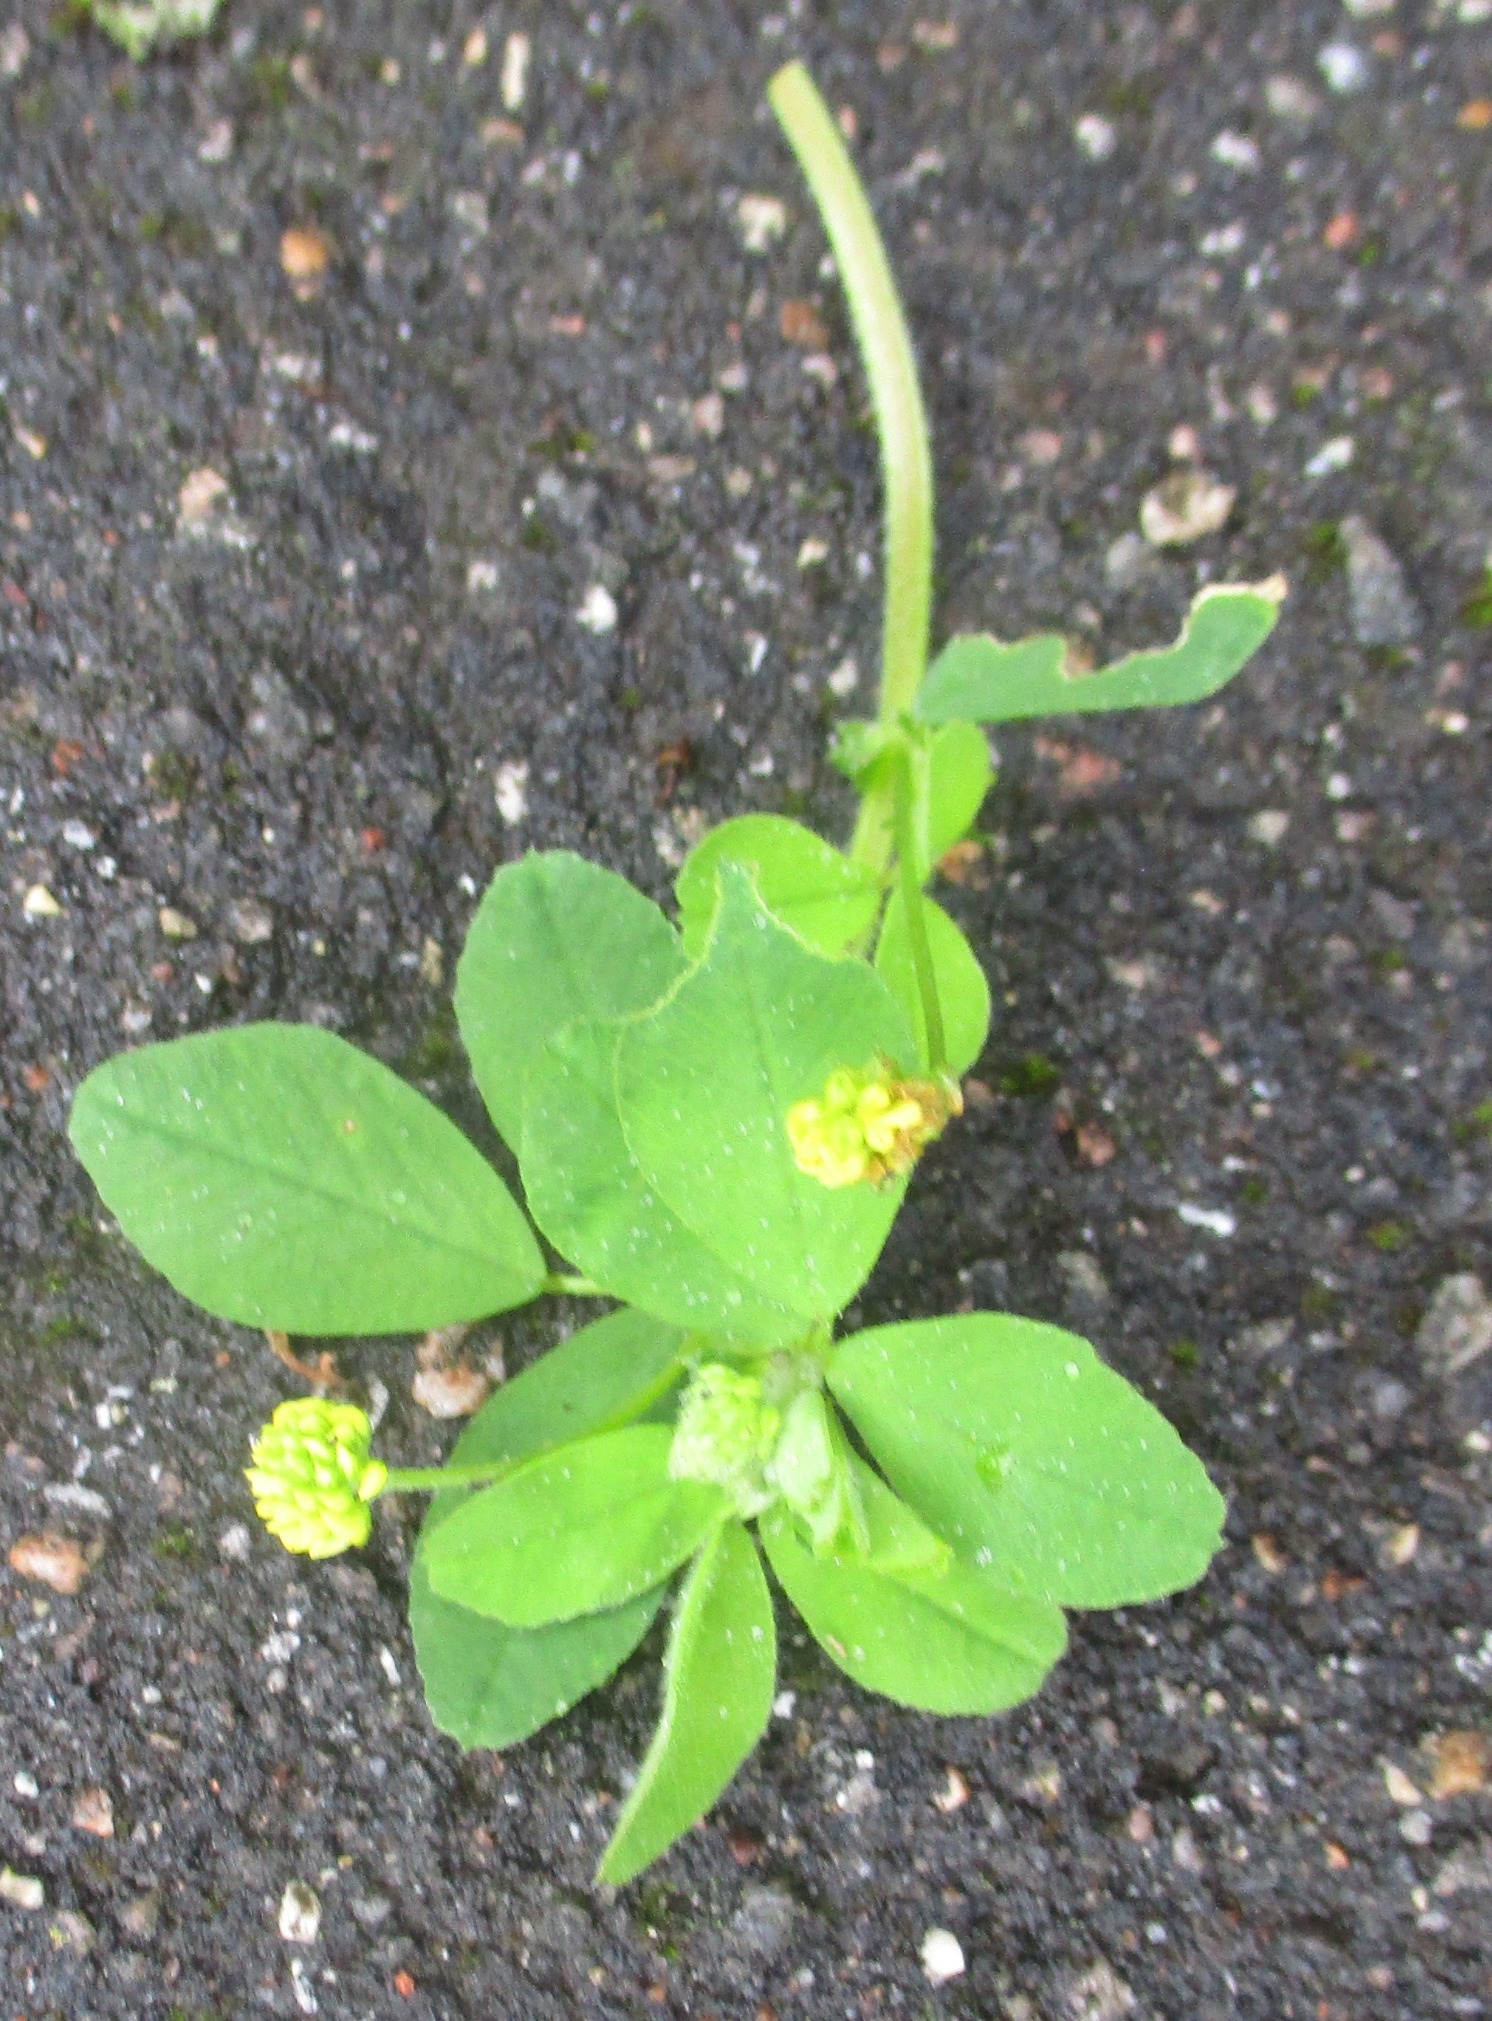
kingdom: Plantae
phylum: Tracheophyta
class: Magnoliopsida
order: Fabales
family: Fabaceae
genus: Medicago
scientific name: Medicago lupulina
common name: Humle-sneglebælg
